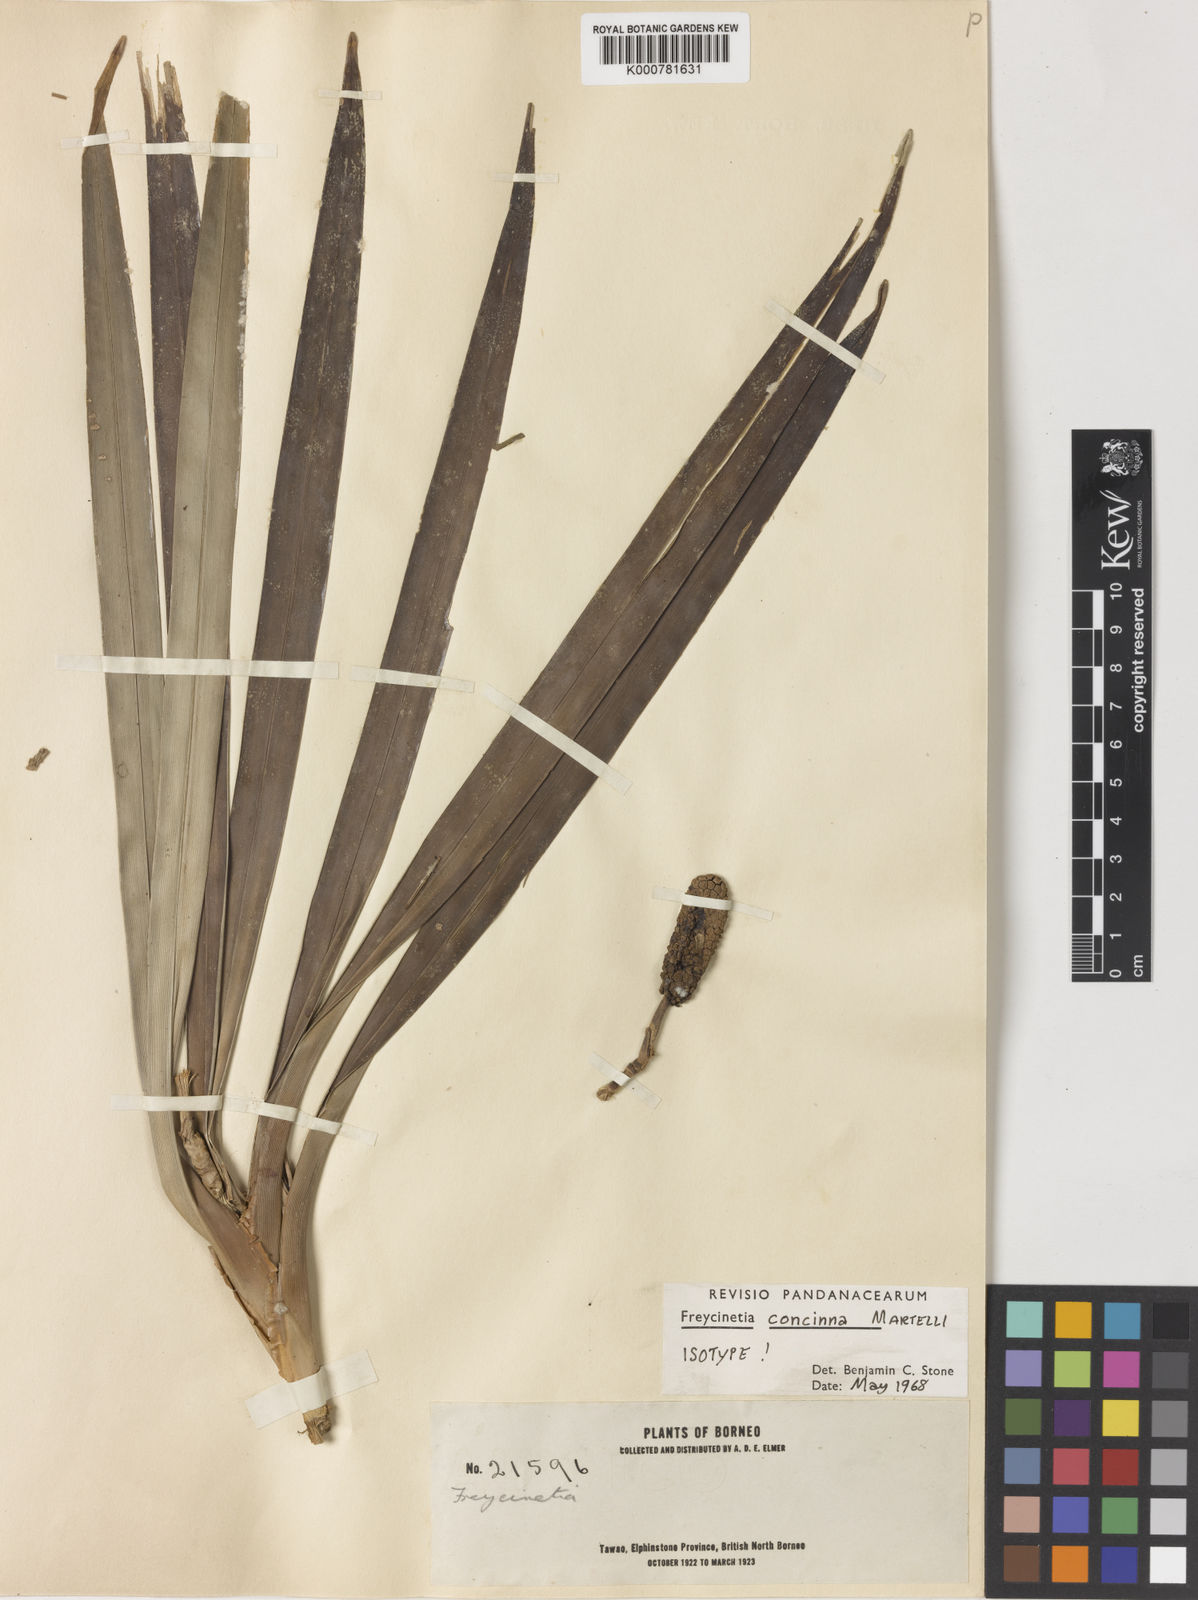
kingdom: Plantae
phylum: Tracheophyta
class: Liliopsida
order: Pandanales
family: Pandanaceae
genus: Freycinetia
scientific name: Freycinetia concinna
